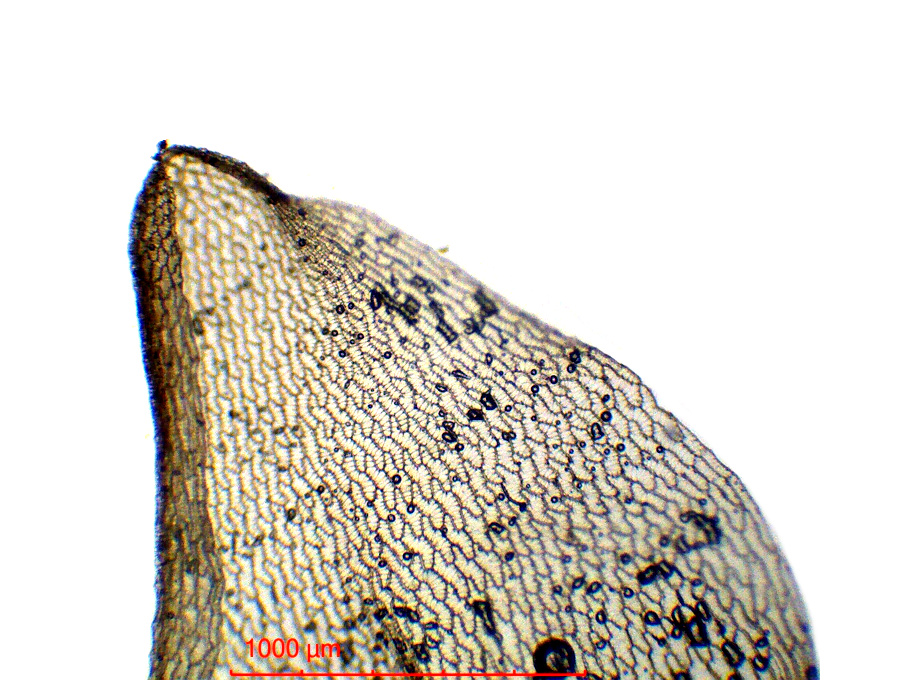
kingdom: Plantae
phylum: Bryophyta
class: Sphagnopsida
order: Sphagnales
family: Sphagnaceae
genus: Sphagnum
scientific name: Sphagnum perichaetiale
